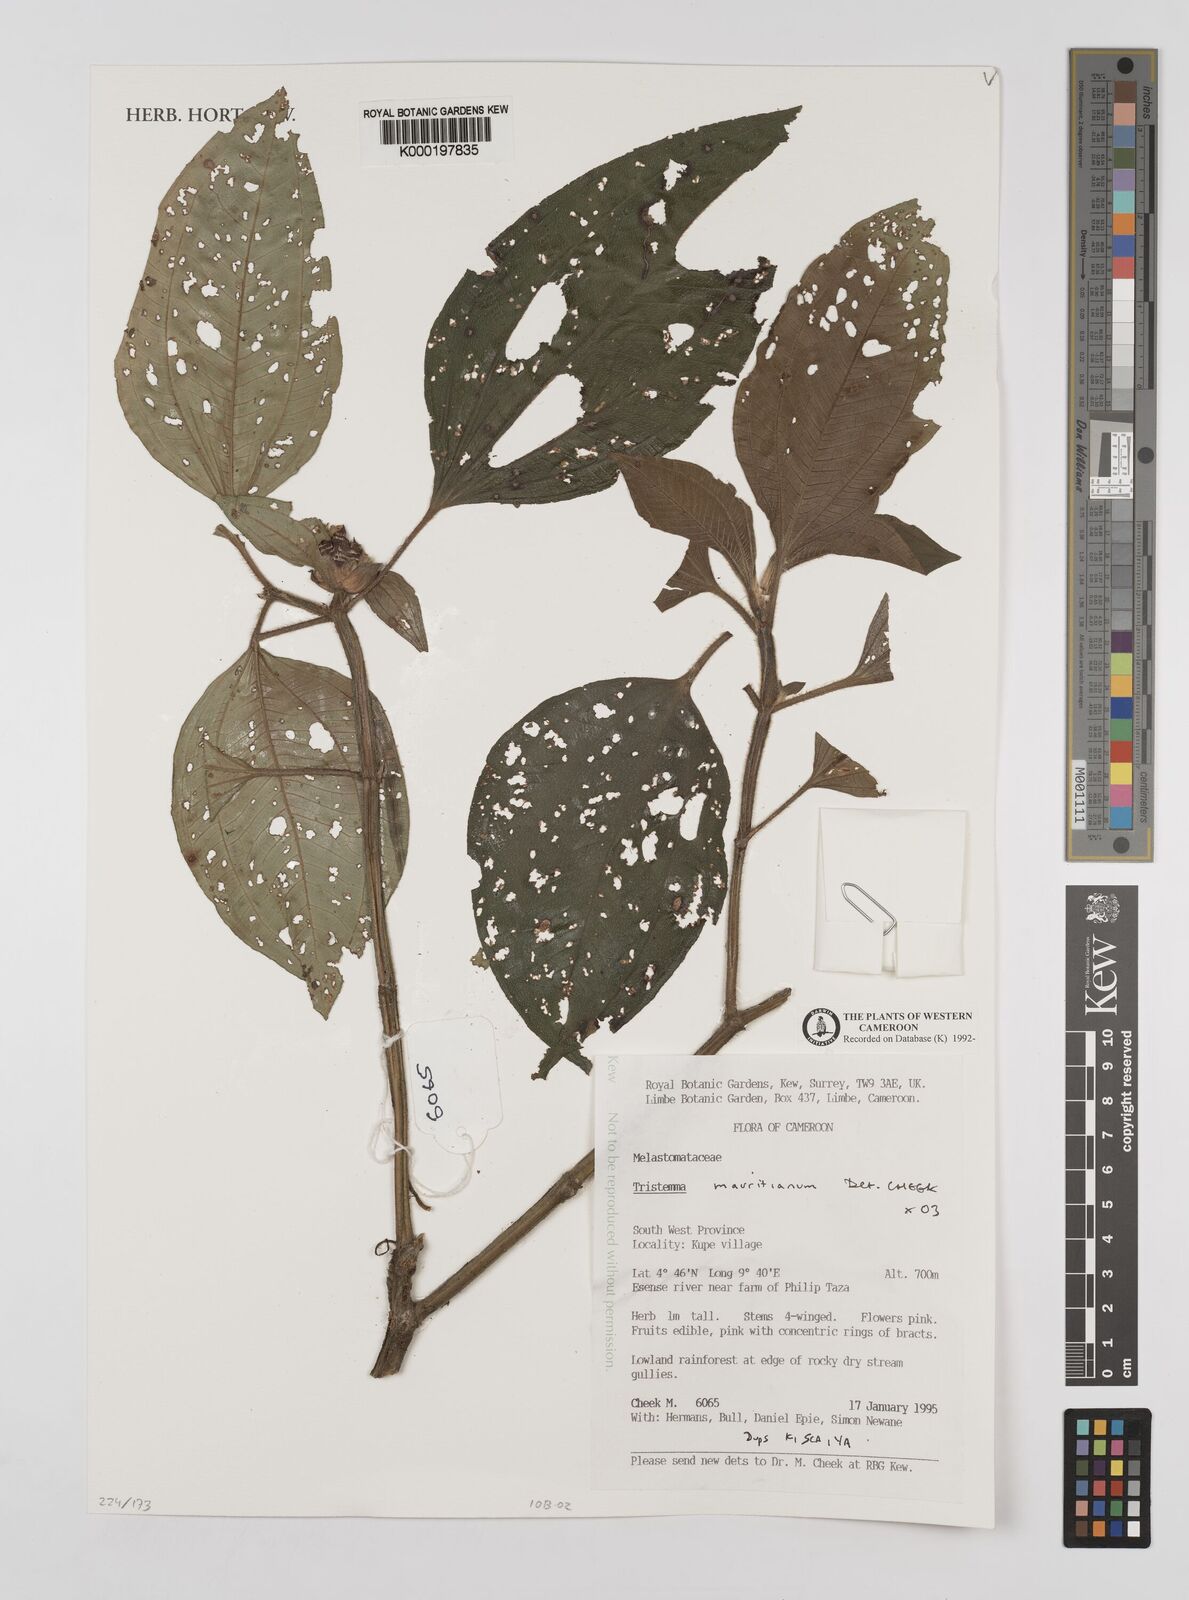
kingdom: Plantae
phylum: Tracheophyta
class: Magnoliopsida
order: Myrtales
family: Melastomataceae
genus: Tristemma
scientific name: Tristemma
